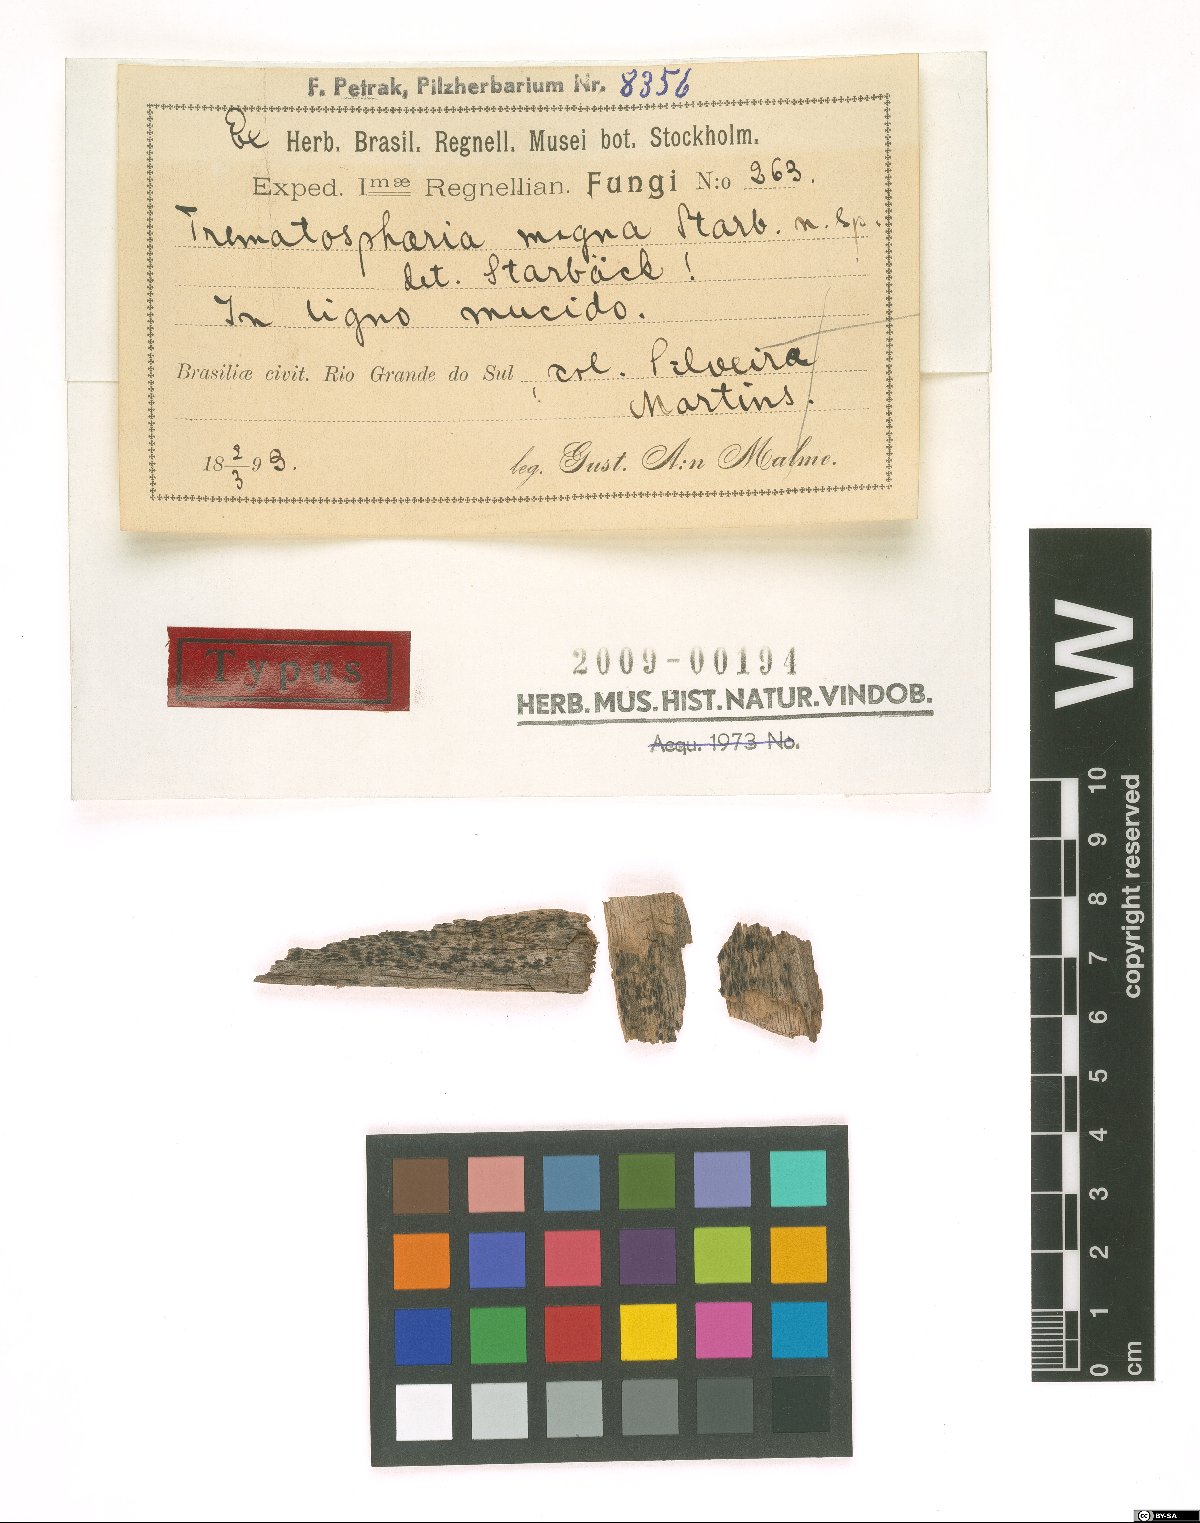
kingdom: Fungi
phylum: Ascomycota
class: Dothideomycetes
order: Pleosporales
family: Melanommataceae
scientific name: Melanommataceae
